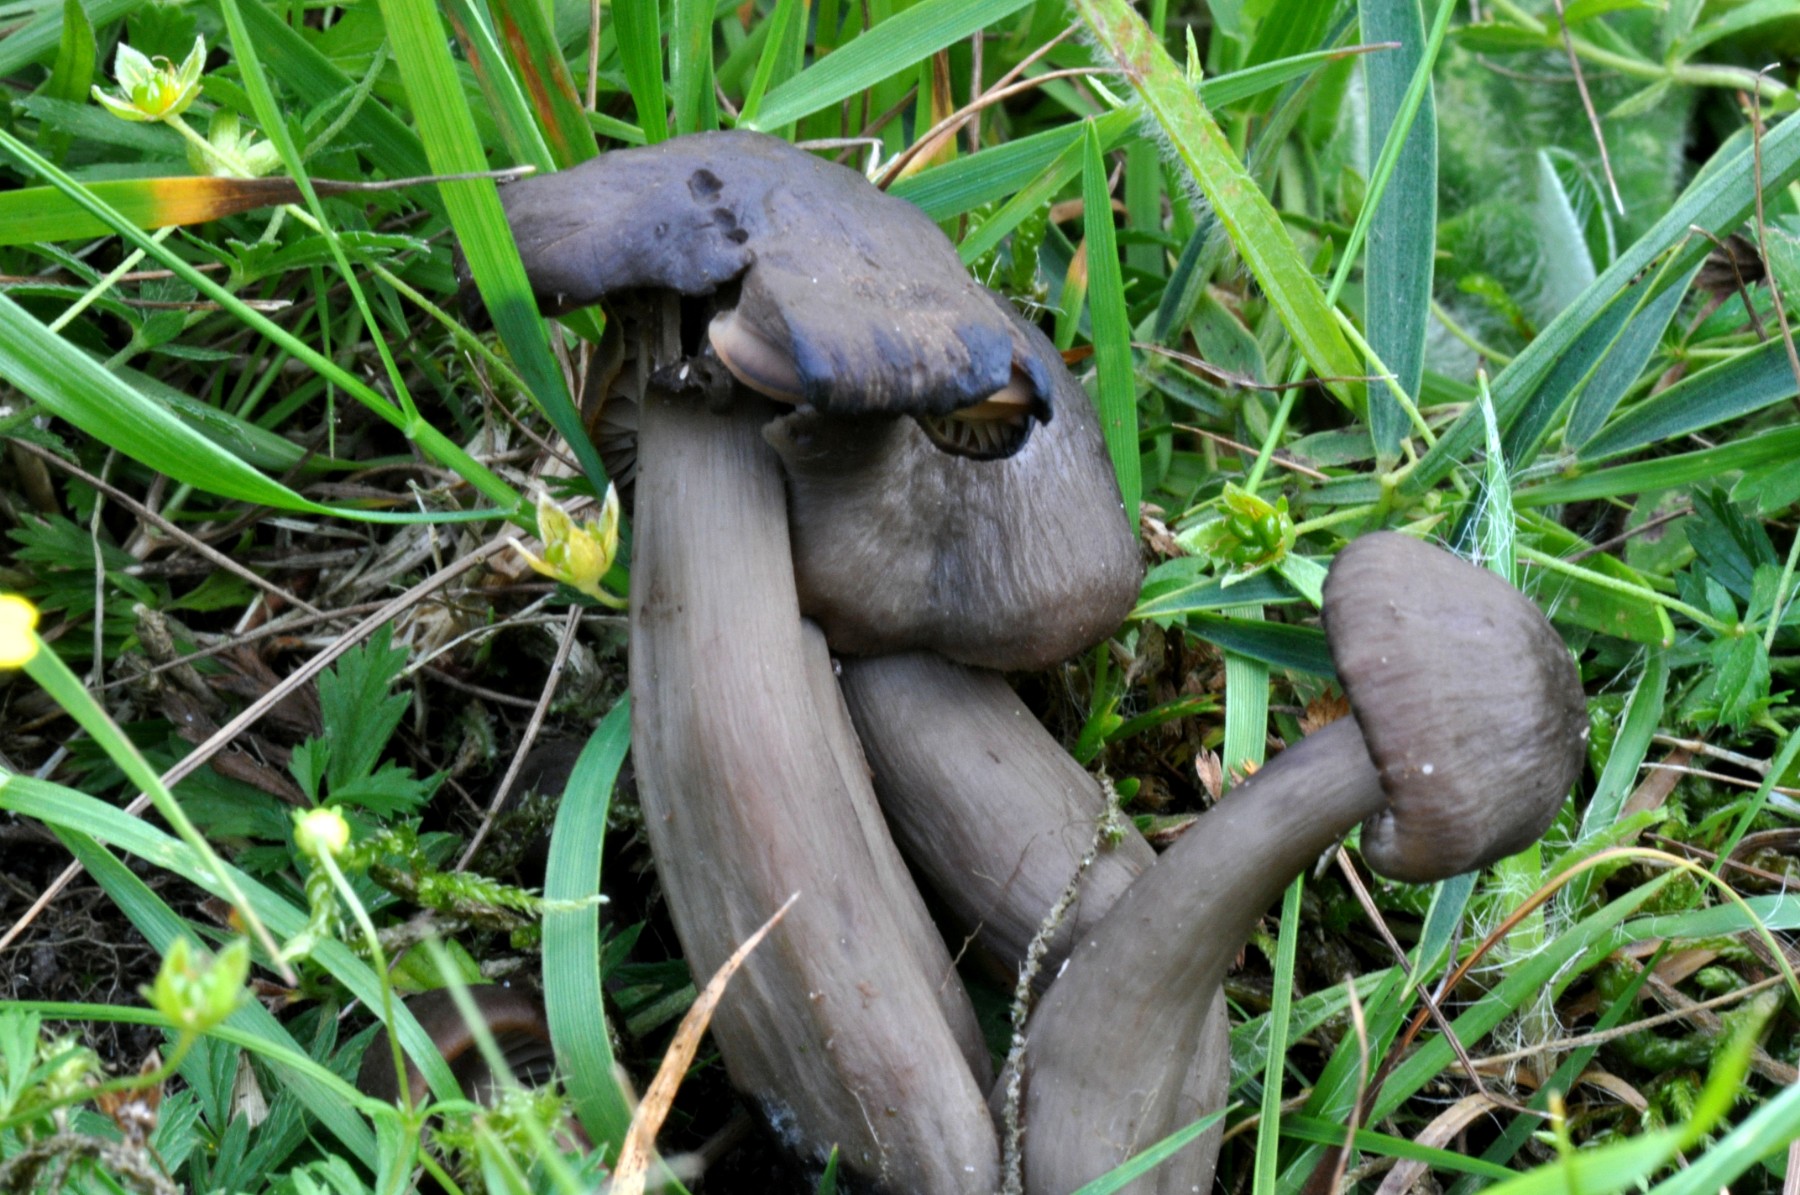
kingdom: Fungi
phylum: Basidiomycota
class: Agaricomycetes
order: Agaricales
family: Hygrophoraceae
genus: Neohygrocybe
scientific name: Neohygrocybe ovina
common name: rødmende vokshat
